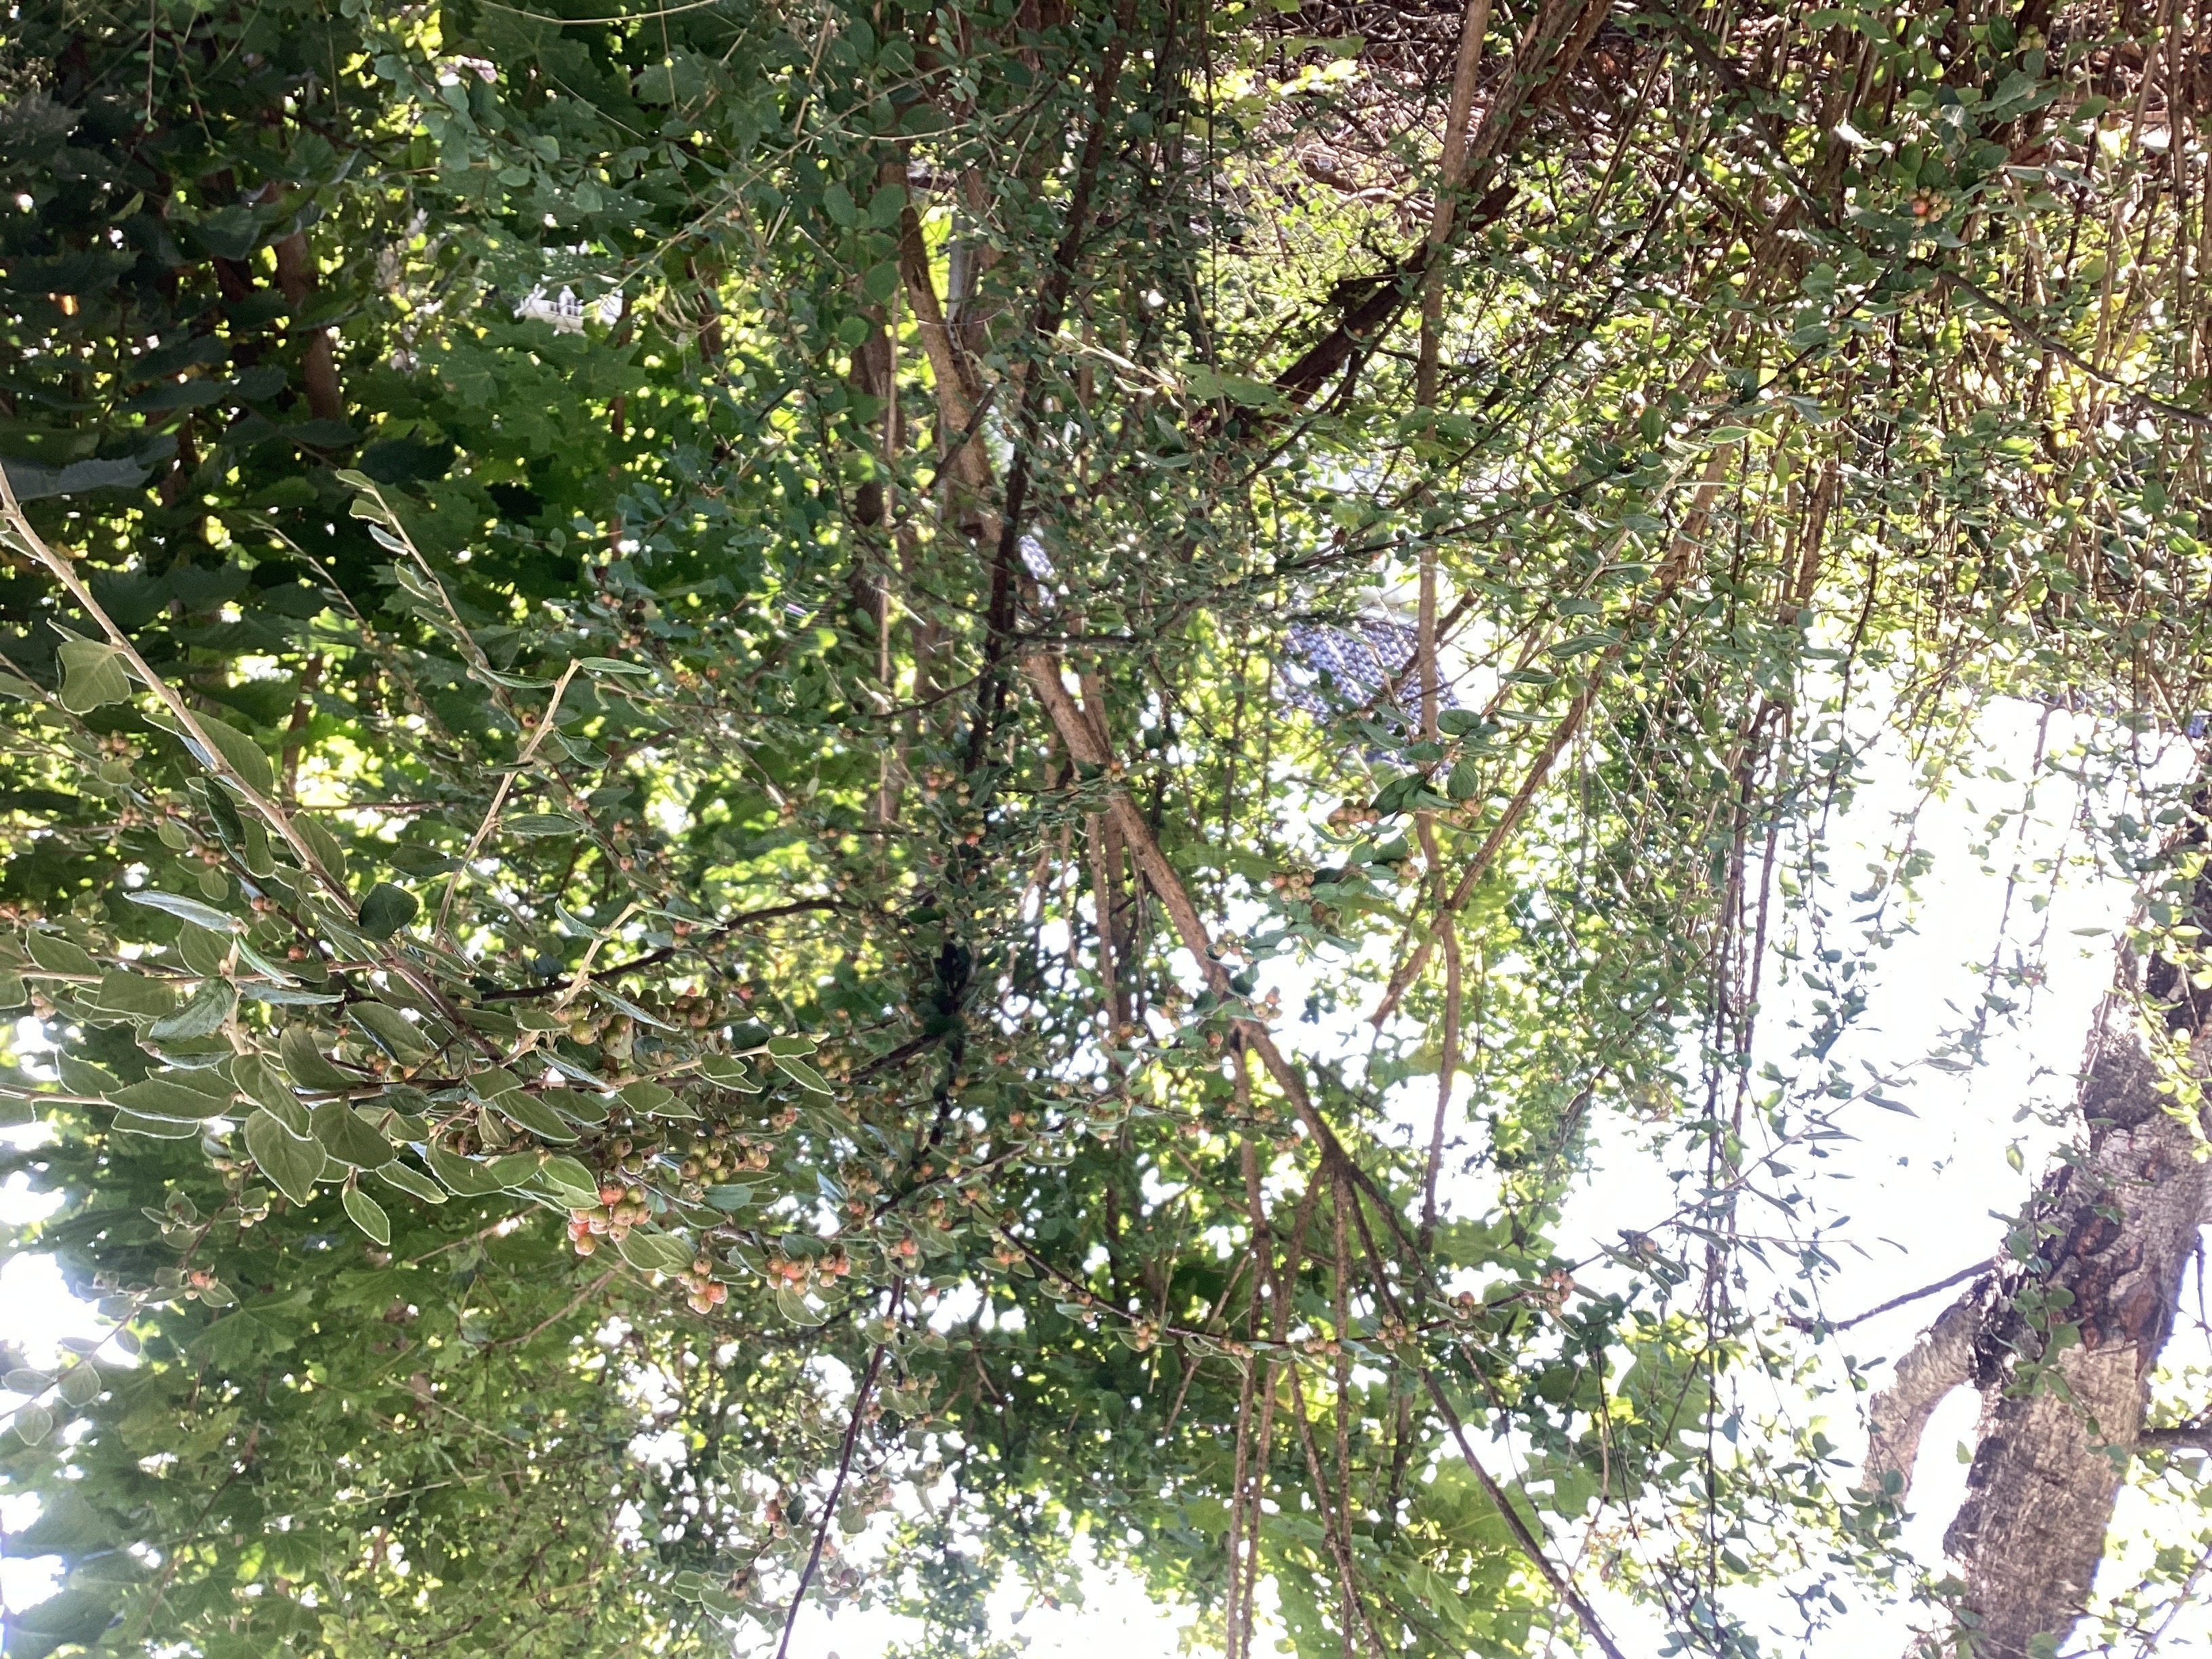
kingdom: Plantae
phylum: Tracheophyta
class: Magnoliopsida
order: Rosales
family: Rosaceae
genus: Cotoneaster
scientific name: Cotoneaster dielsianus
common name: dielsmispel
